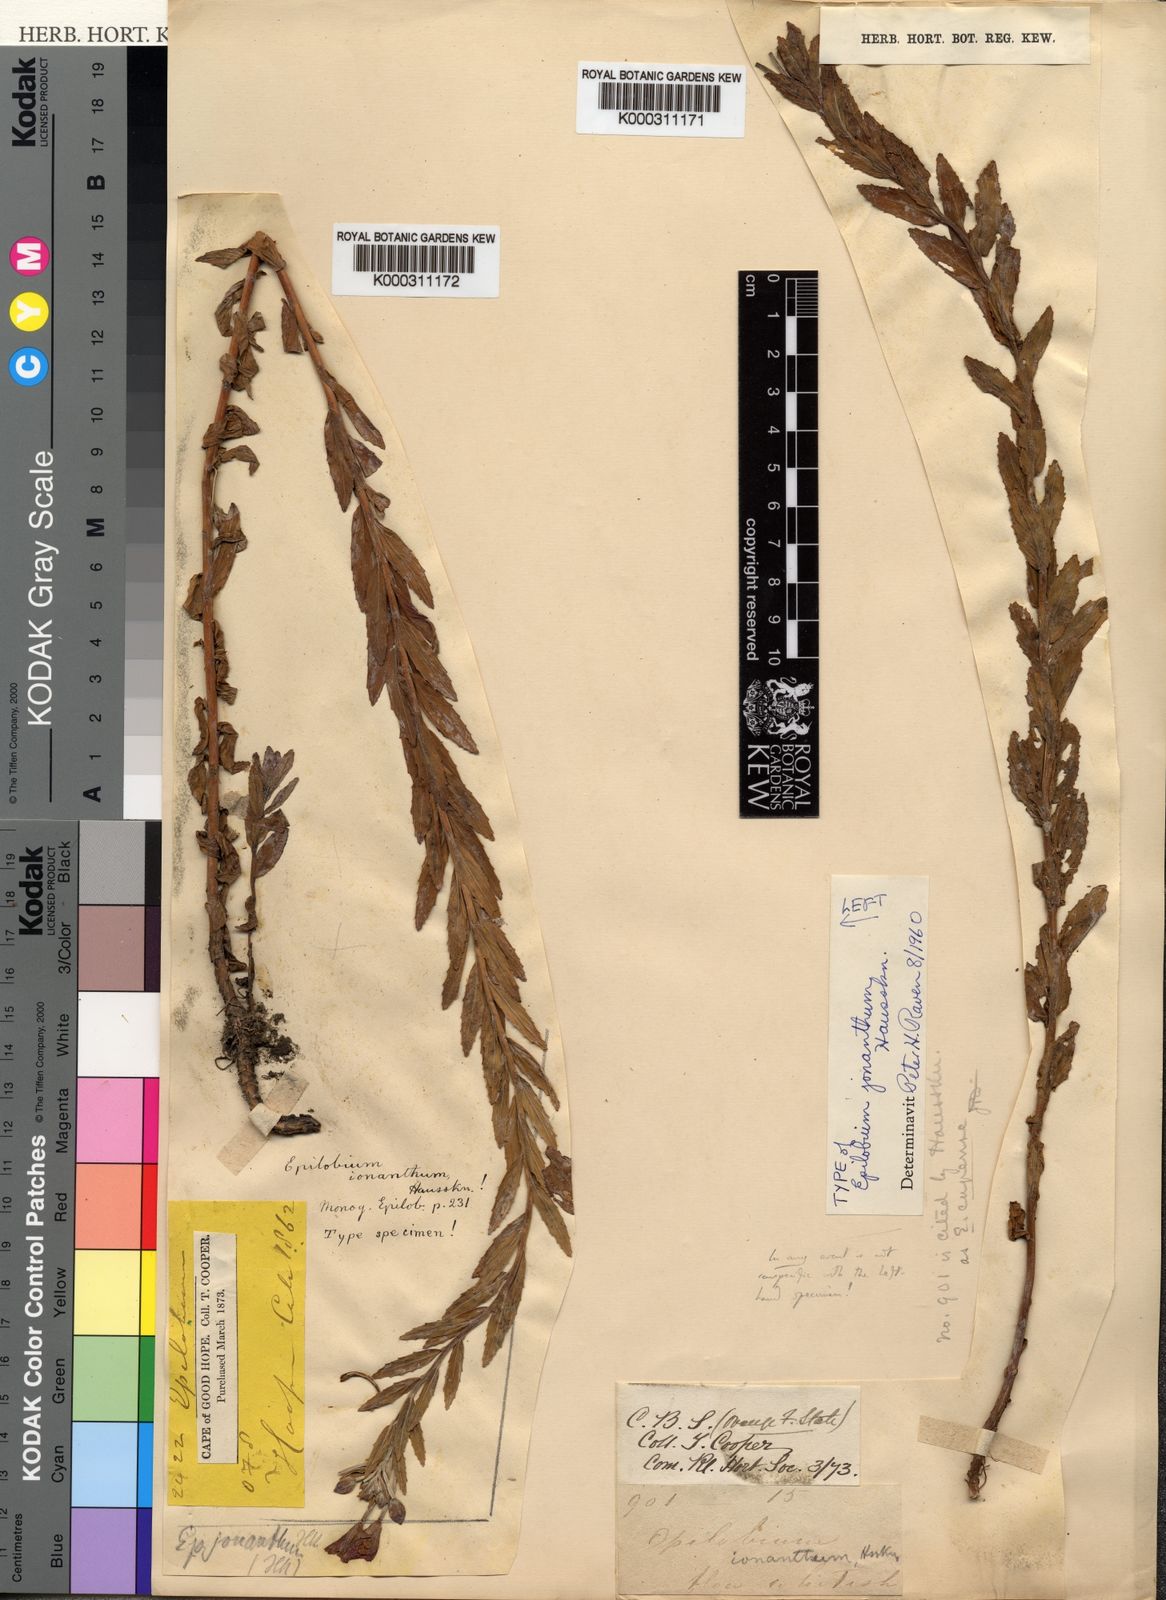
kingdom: Plantae
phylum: Tracheophyta
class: Magnoliopsida
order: Myrtales
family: Onagraceae
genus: Epilobium
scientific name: Epilobium
